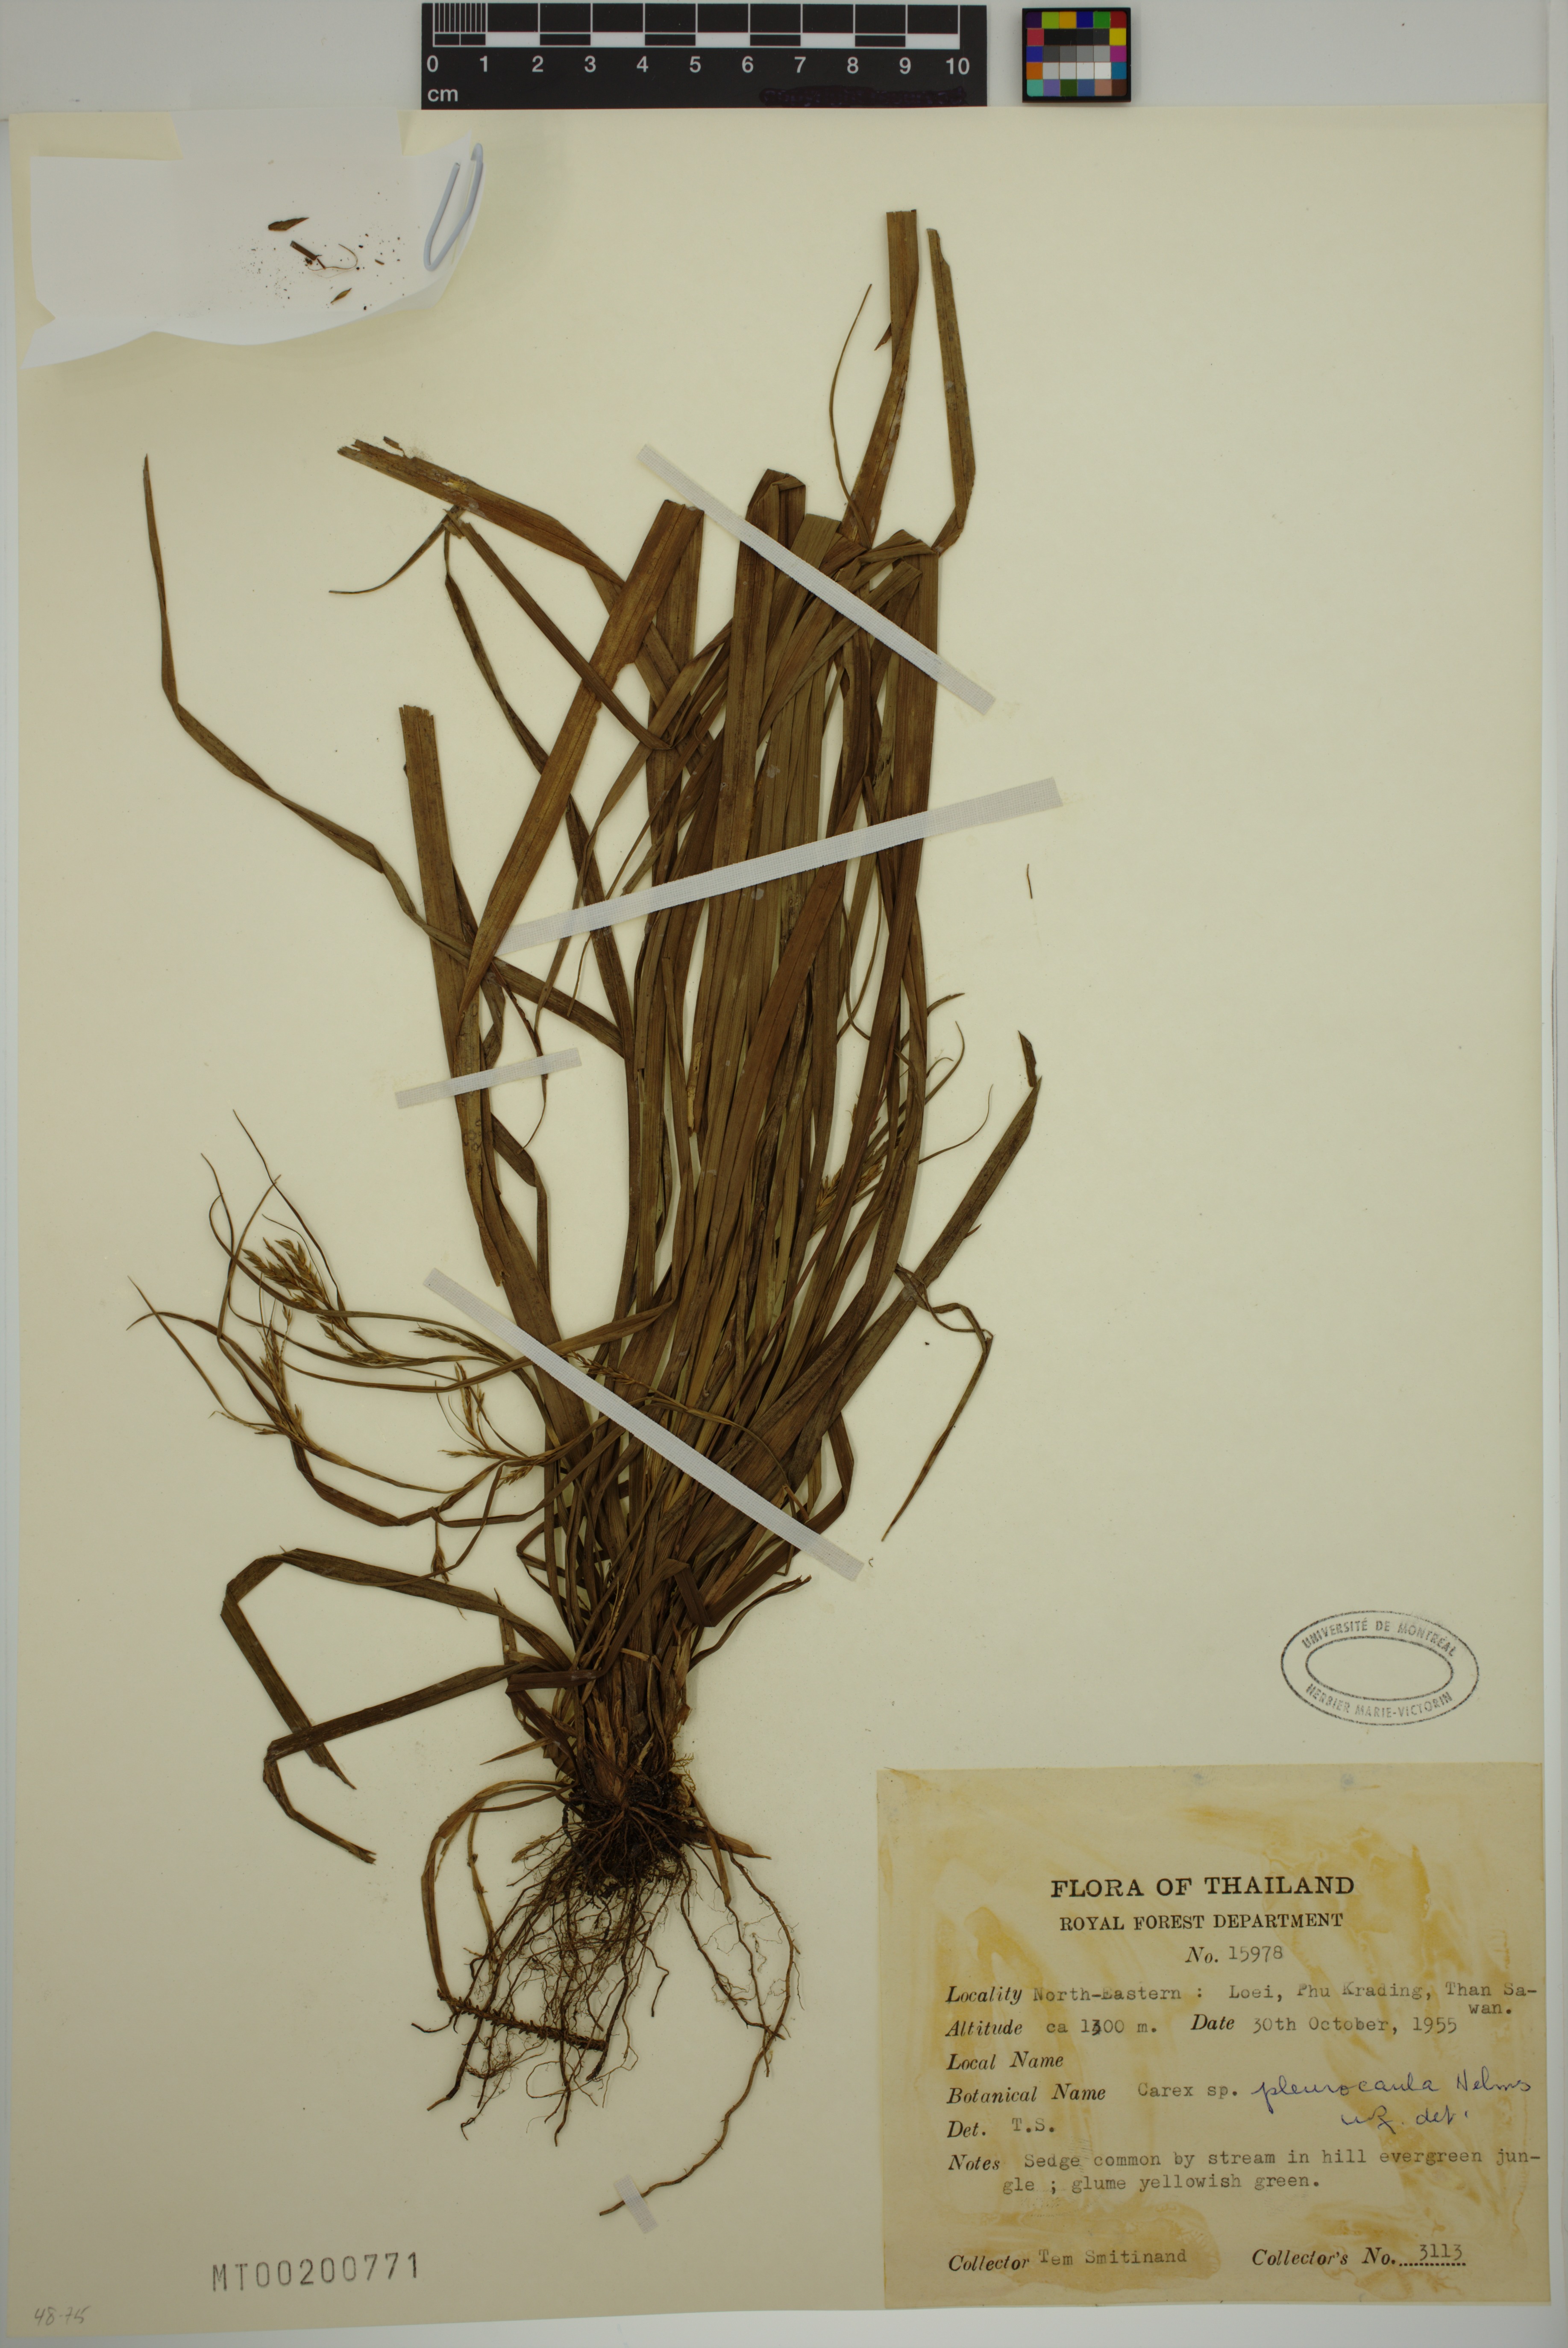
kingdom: Plantae
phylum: Tracheophyta
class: Liliopsida
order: Poales
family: Cyperaceae
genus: Carex
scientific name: Carex pleurocaula
